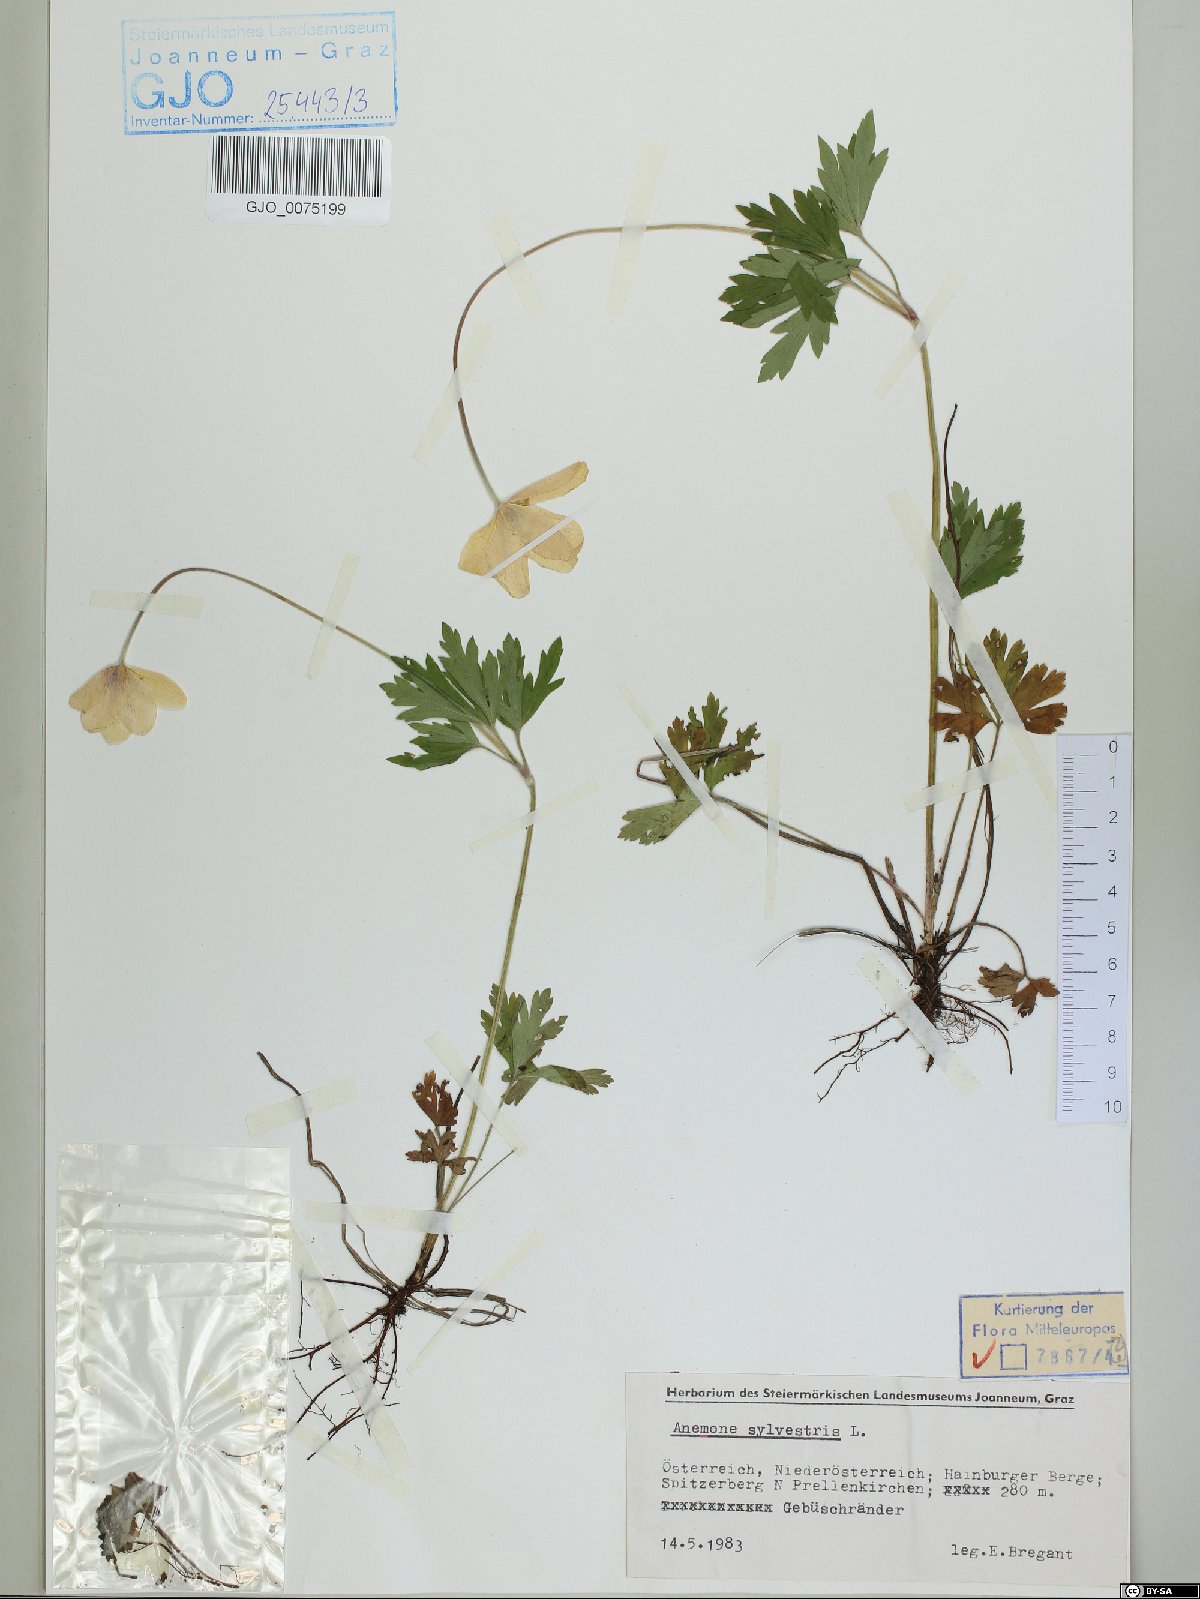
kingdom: Plantae
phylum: Tracheophyta
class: Magnoliopsida
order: Ranunculales
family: Ranunculaceae
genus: Anemone
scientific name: Anemone sylvestris
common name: Snowdrop anemone
